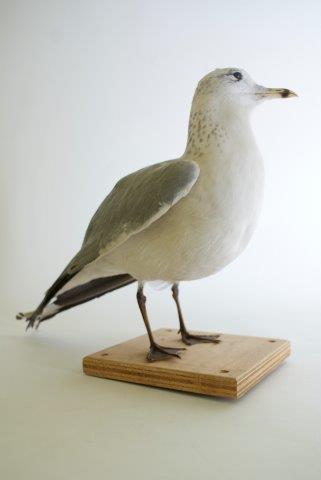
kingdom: Animalia
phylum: Chordata
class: Aves
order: Charadriiformes
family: Laridae
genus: Larus
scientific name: Larus delawarensis
